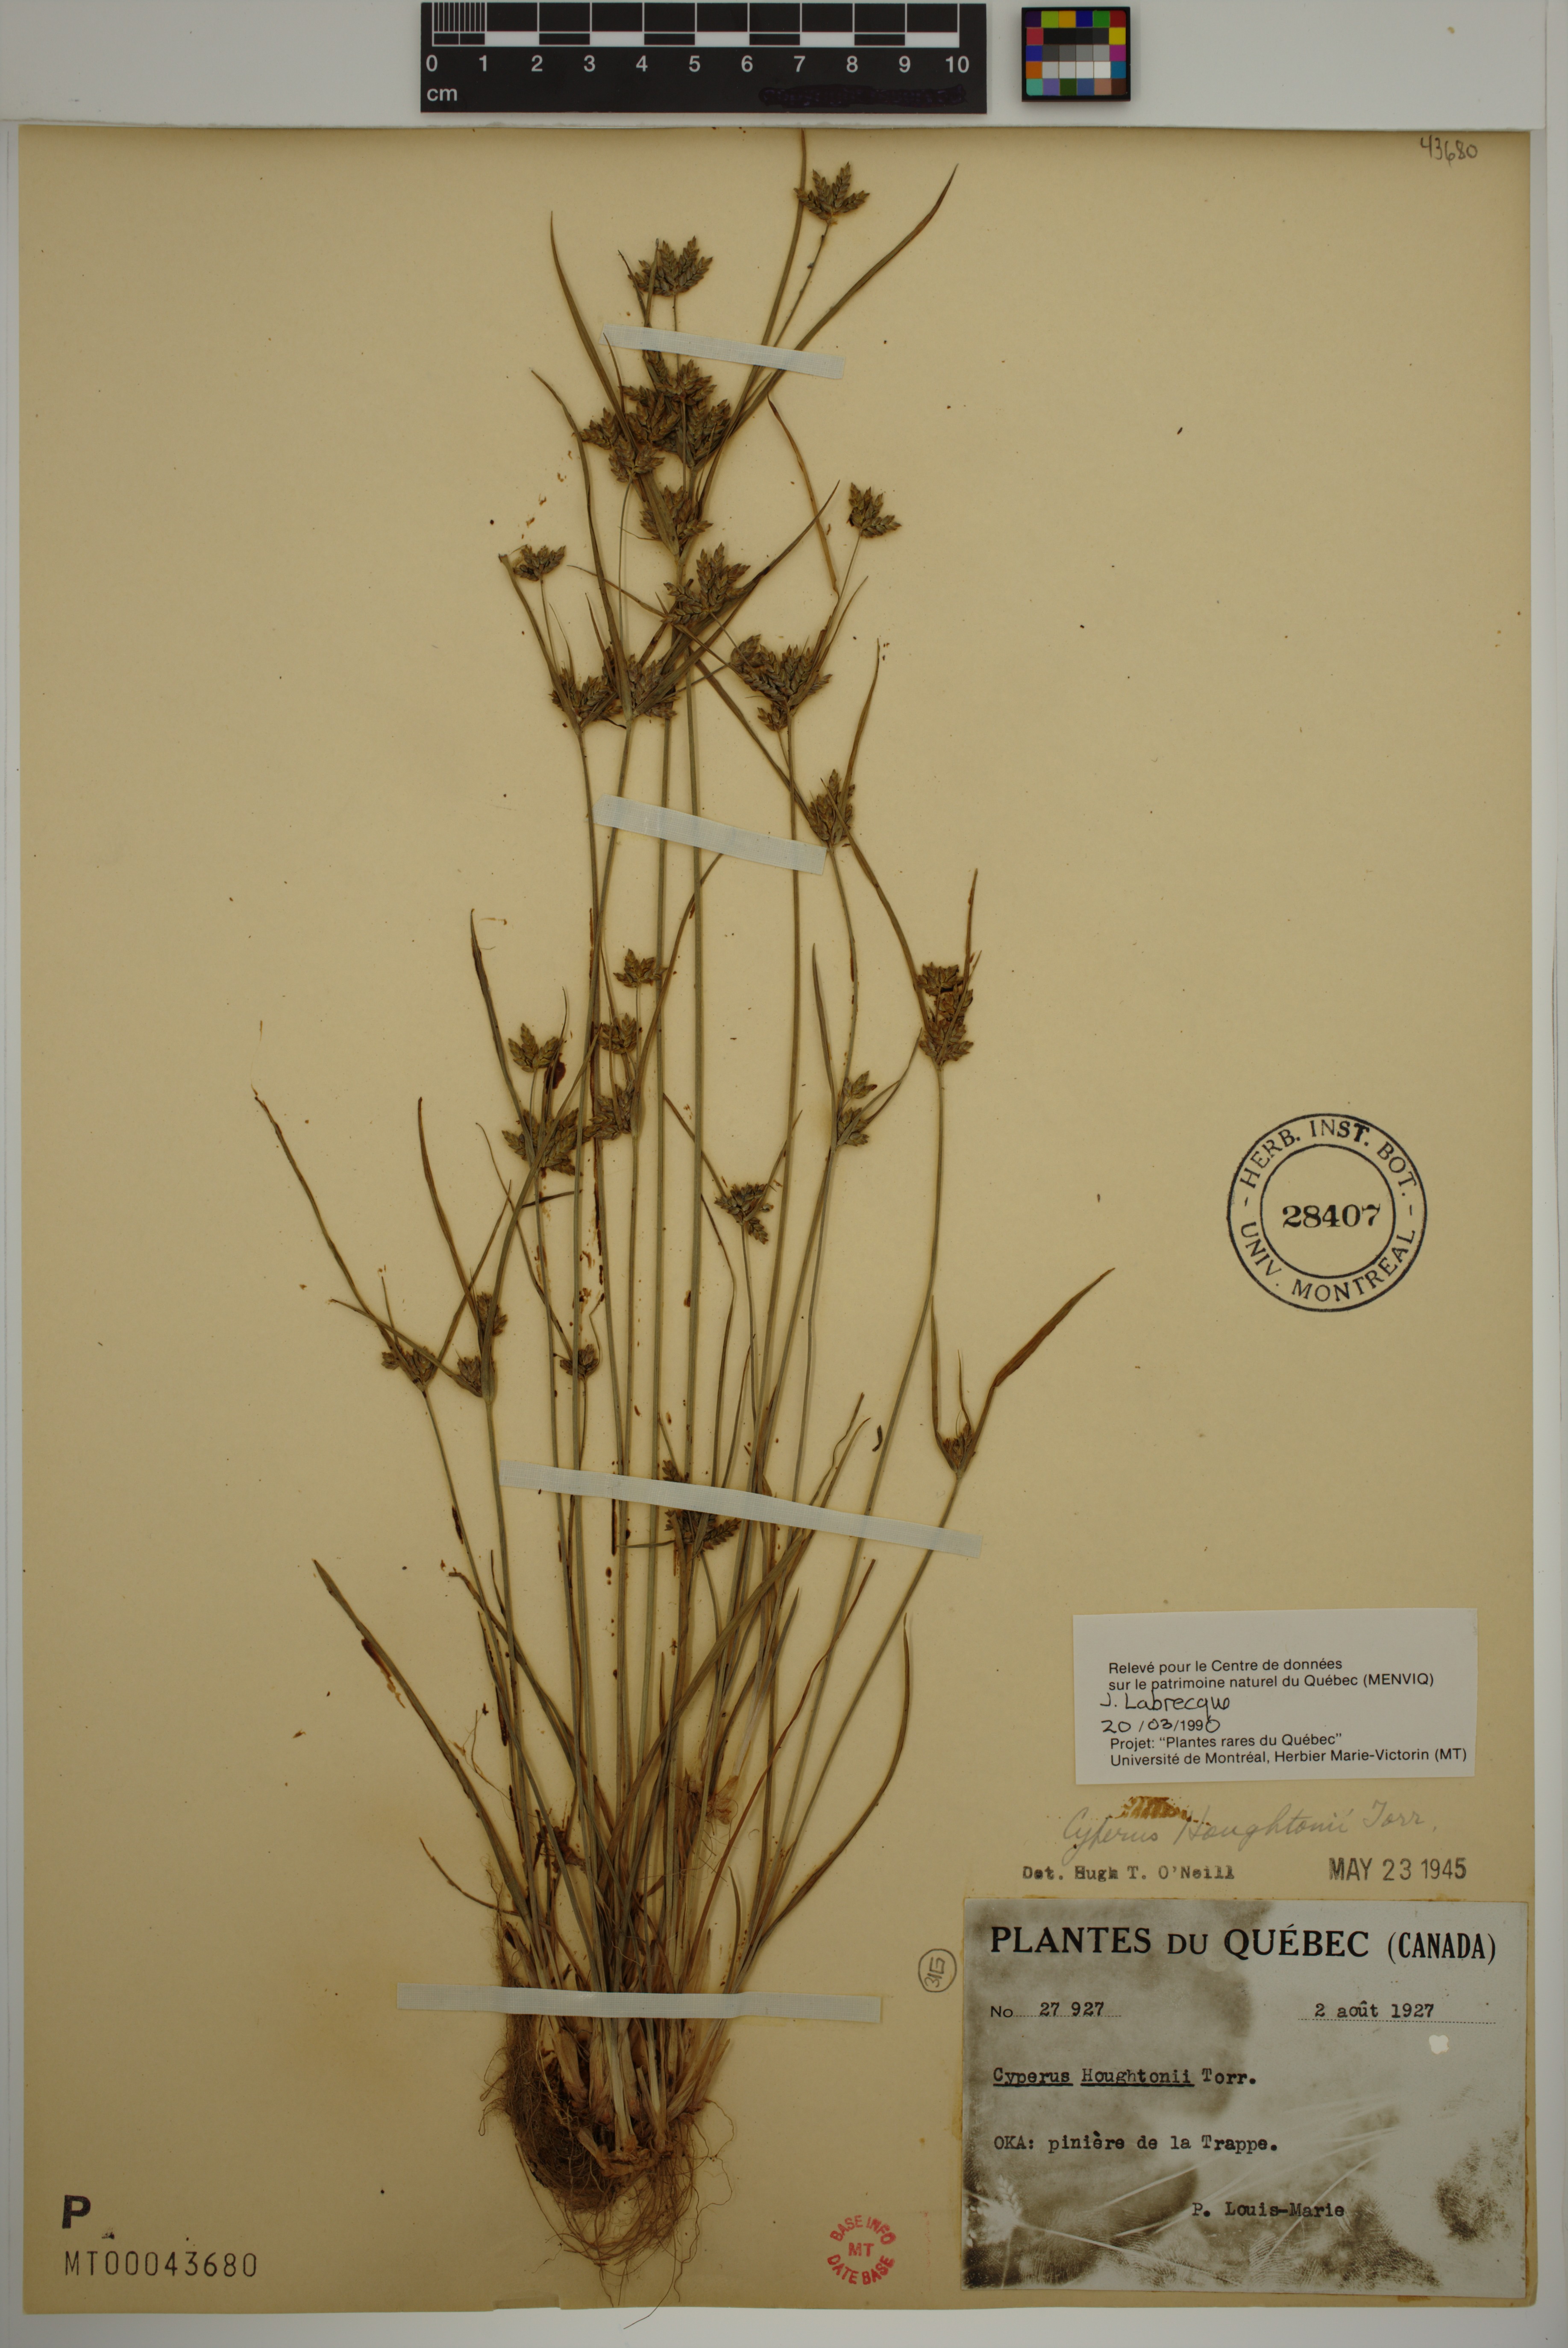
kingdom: Plantae
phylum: Tracheophyta
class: Liliopsida
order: Poales
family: Cyperaceae
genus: Cyperus
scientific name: Cyperus houghtonii
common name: Houghton's cyperus
